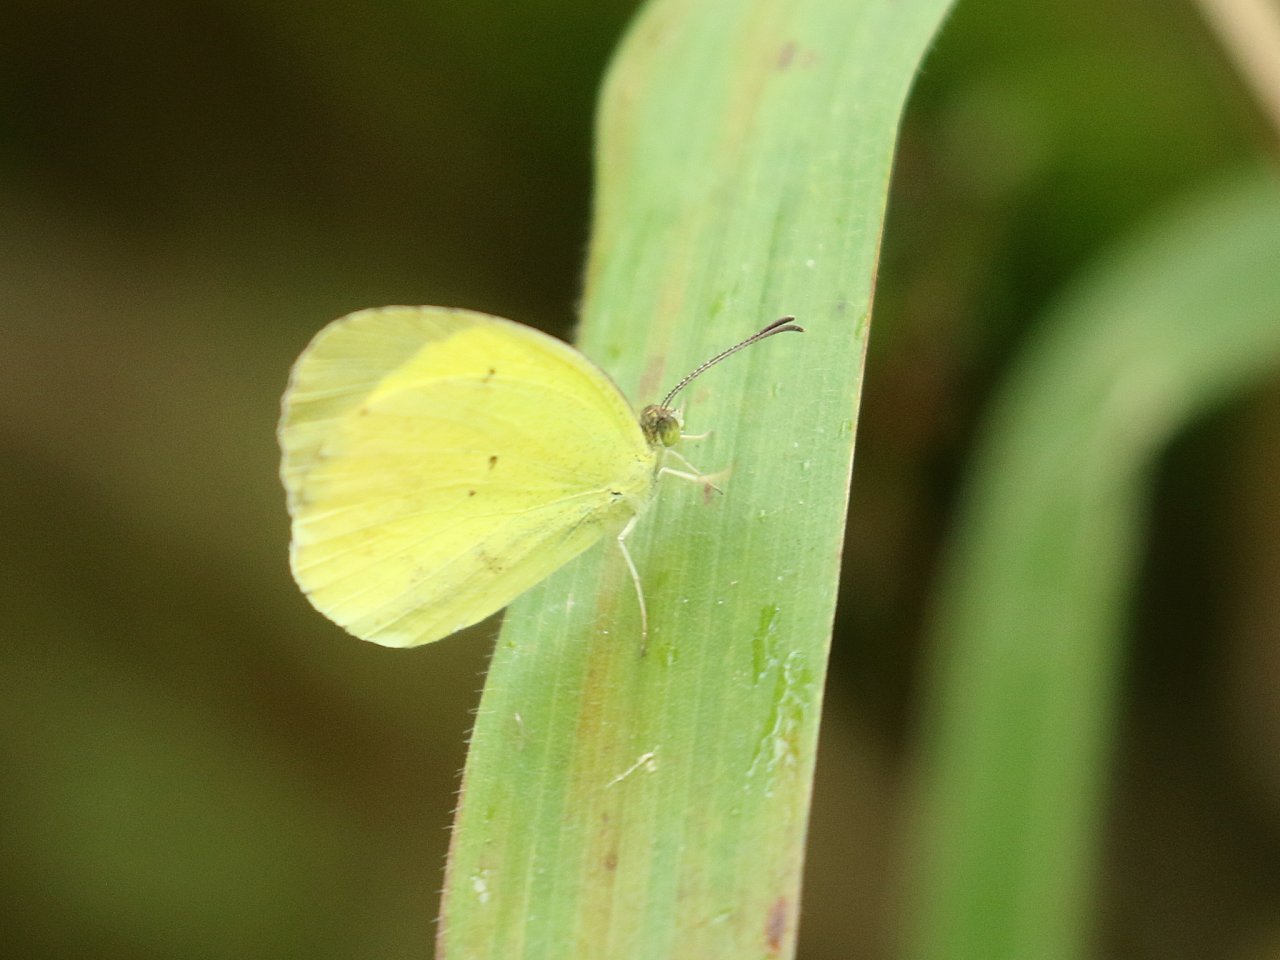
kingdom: Animalia
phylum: Arthropoda
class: Insecta
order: Lepidoptera
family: Pieridae
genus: Pyrisitia
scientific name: Pyrisitia venusta
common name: Pale Yellow
